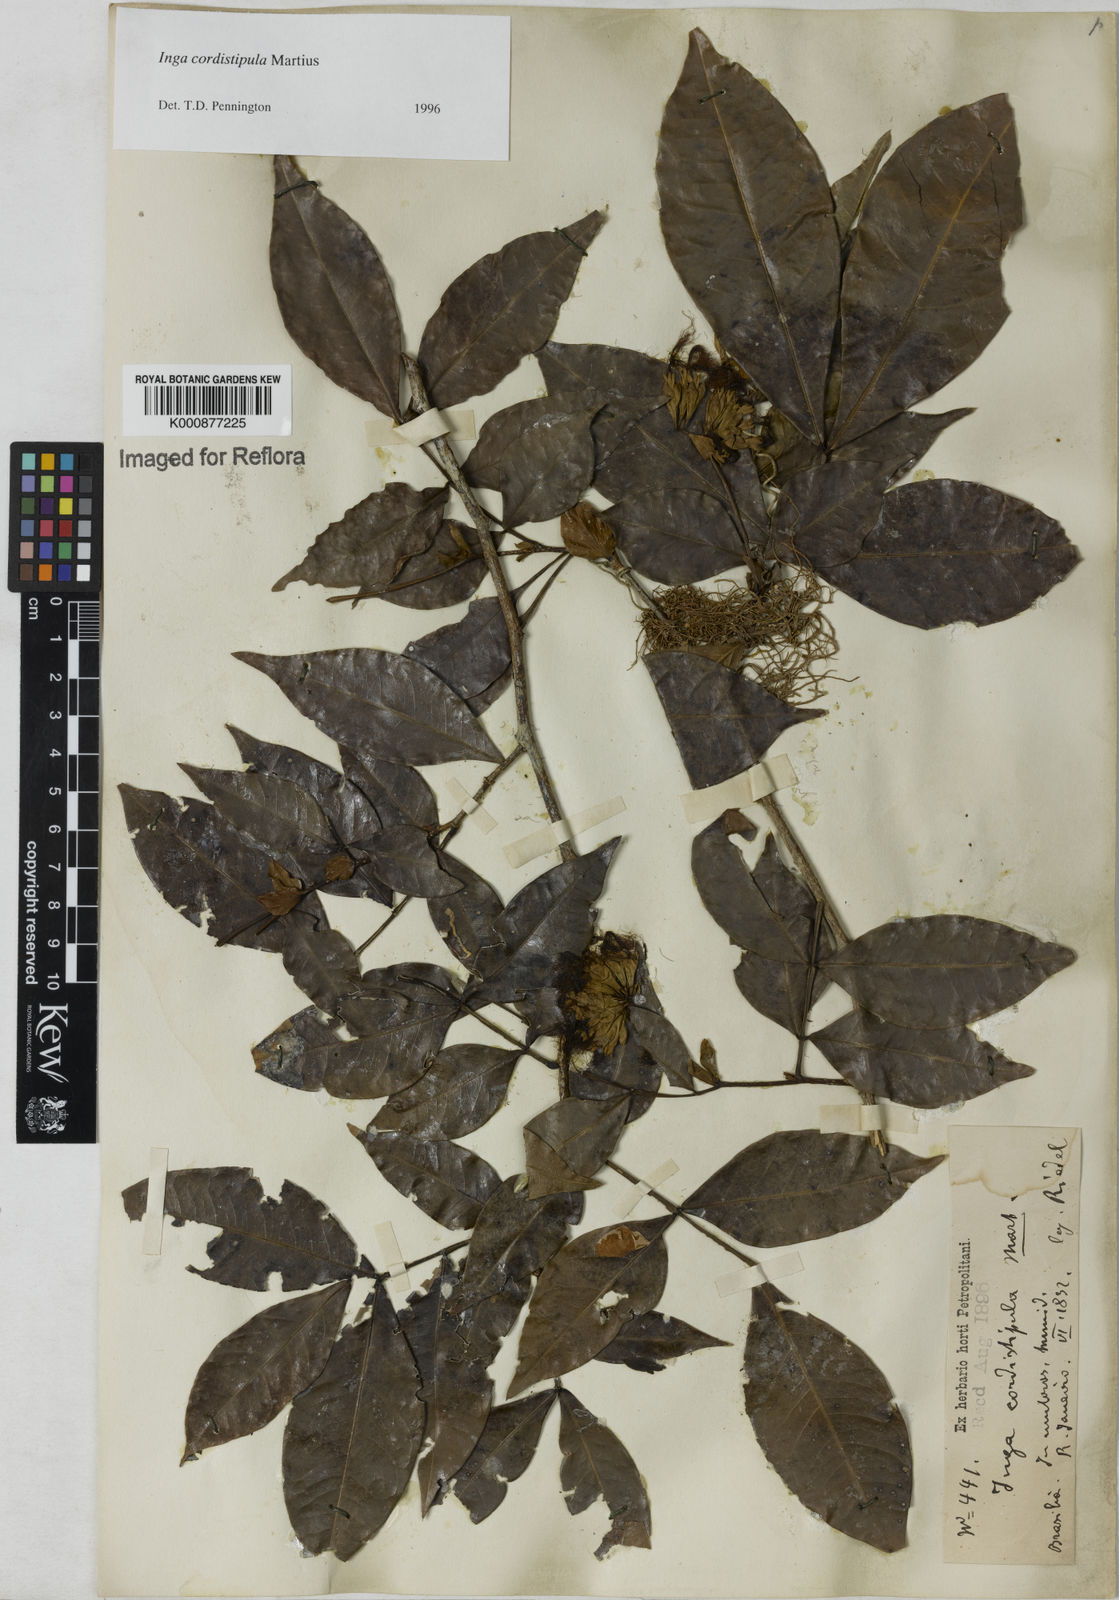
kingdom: Plantae
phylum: Tracheophyta
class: Magnoliopsida
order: Fabales
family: Fabaceae
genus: Inga
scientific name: Inga cordistipula
